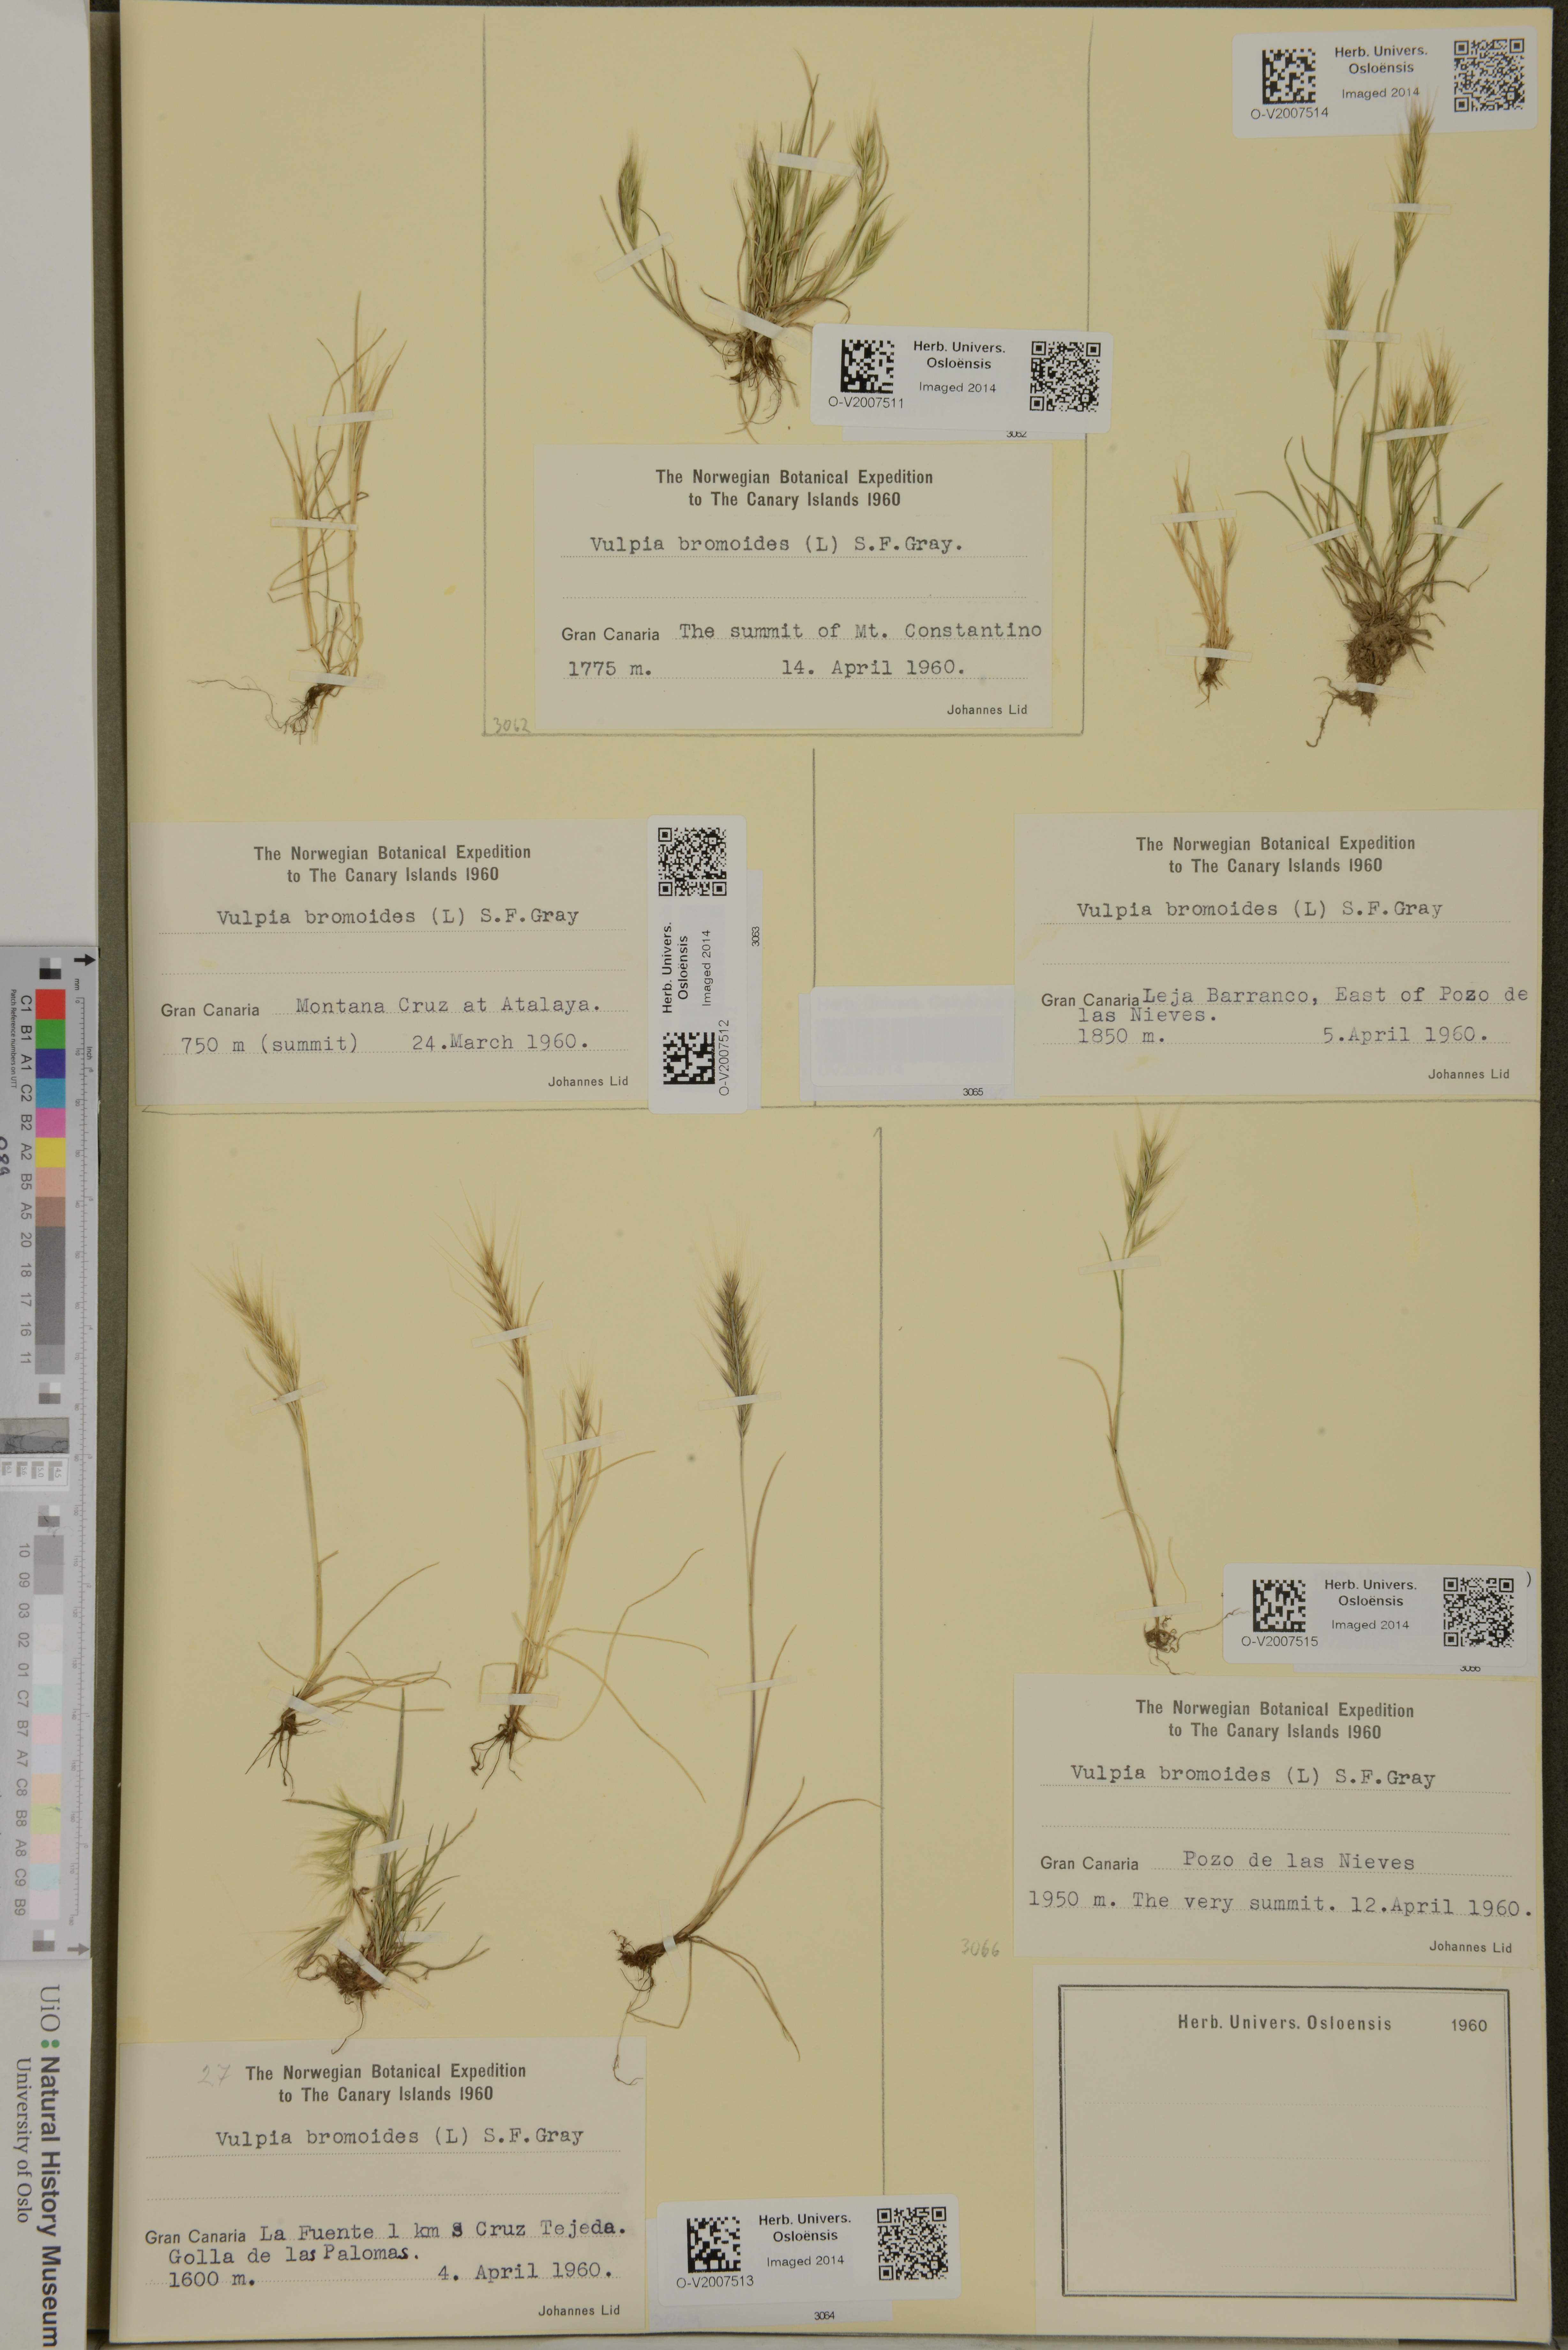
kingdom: Plantae
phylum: Tracheophyta
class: Liliopsida
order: Poales
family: Poaceae
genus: Festuca
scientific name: Festuca bromoides
